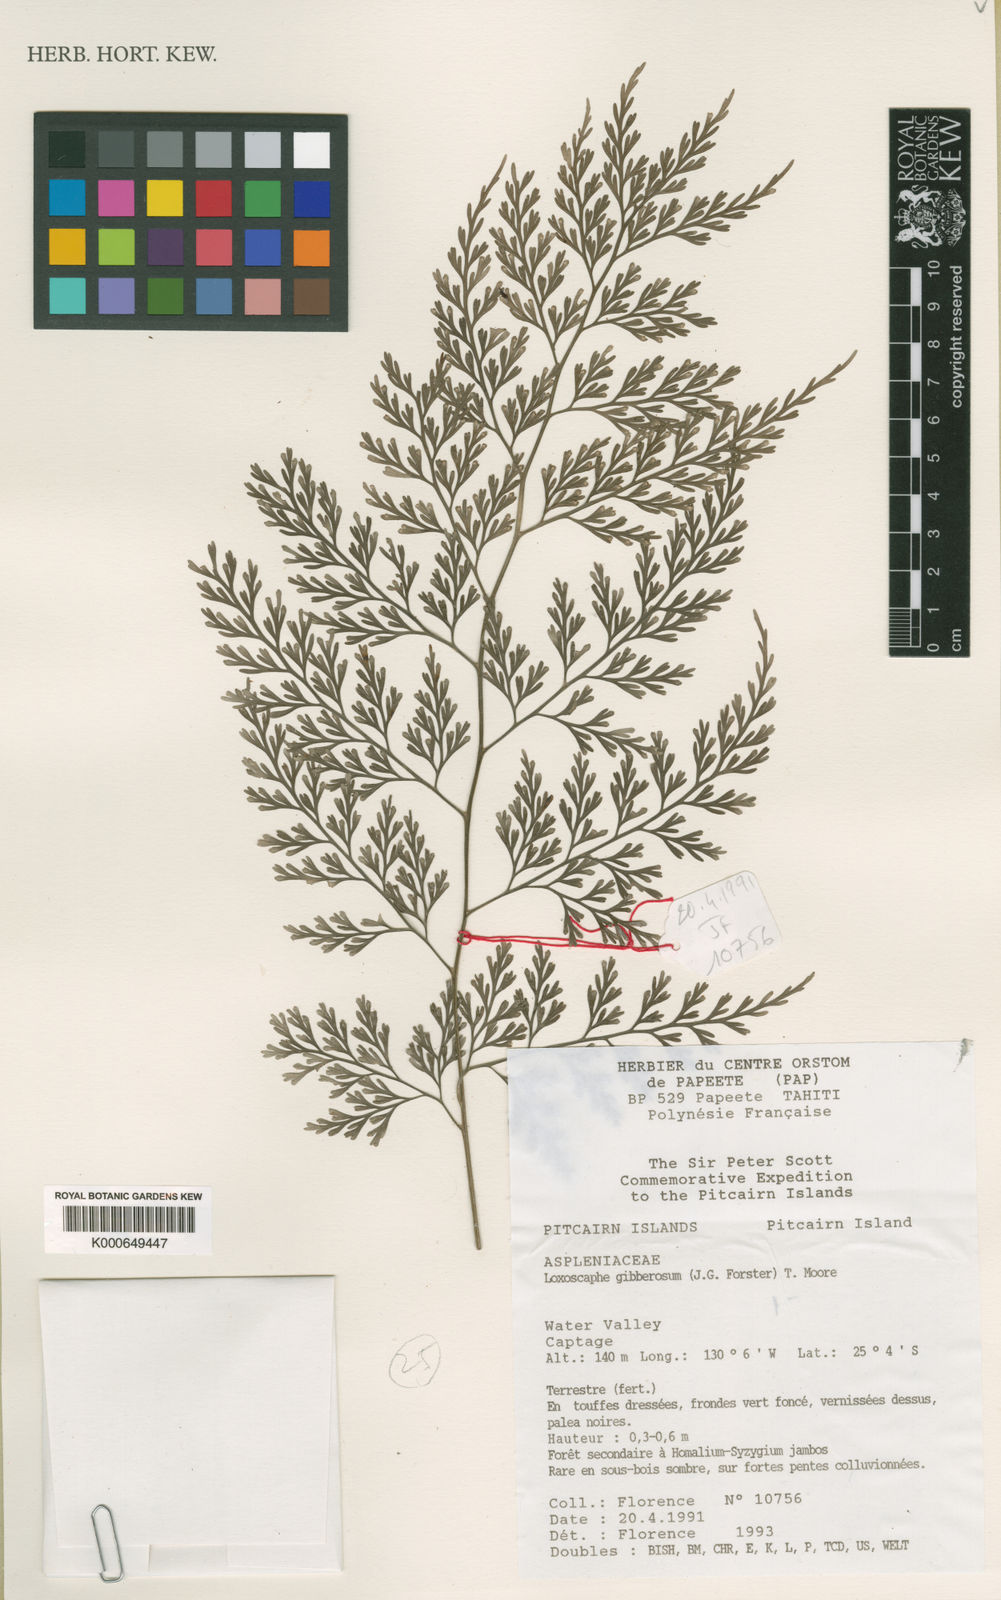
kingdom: Plantae
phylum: Tracheophyta
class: Polypodiopsida
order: Polypodiales
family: Aspleniaceae
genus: Asplenium
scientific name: Asplenium gibberosum
